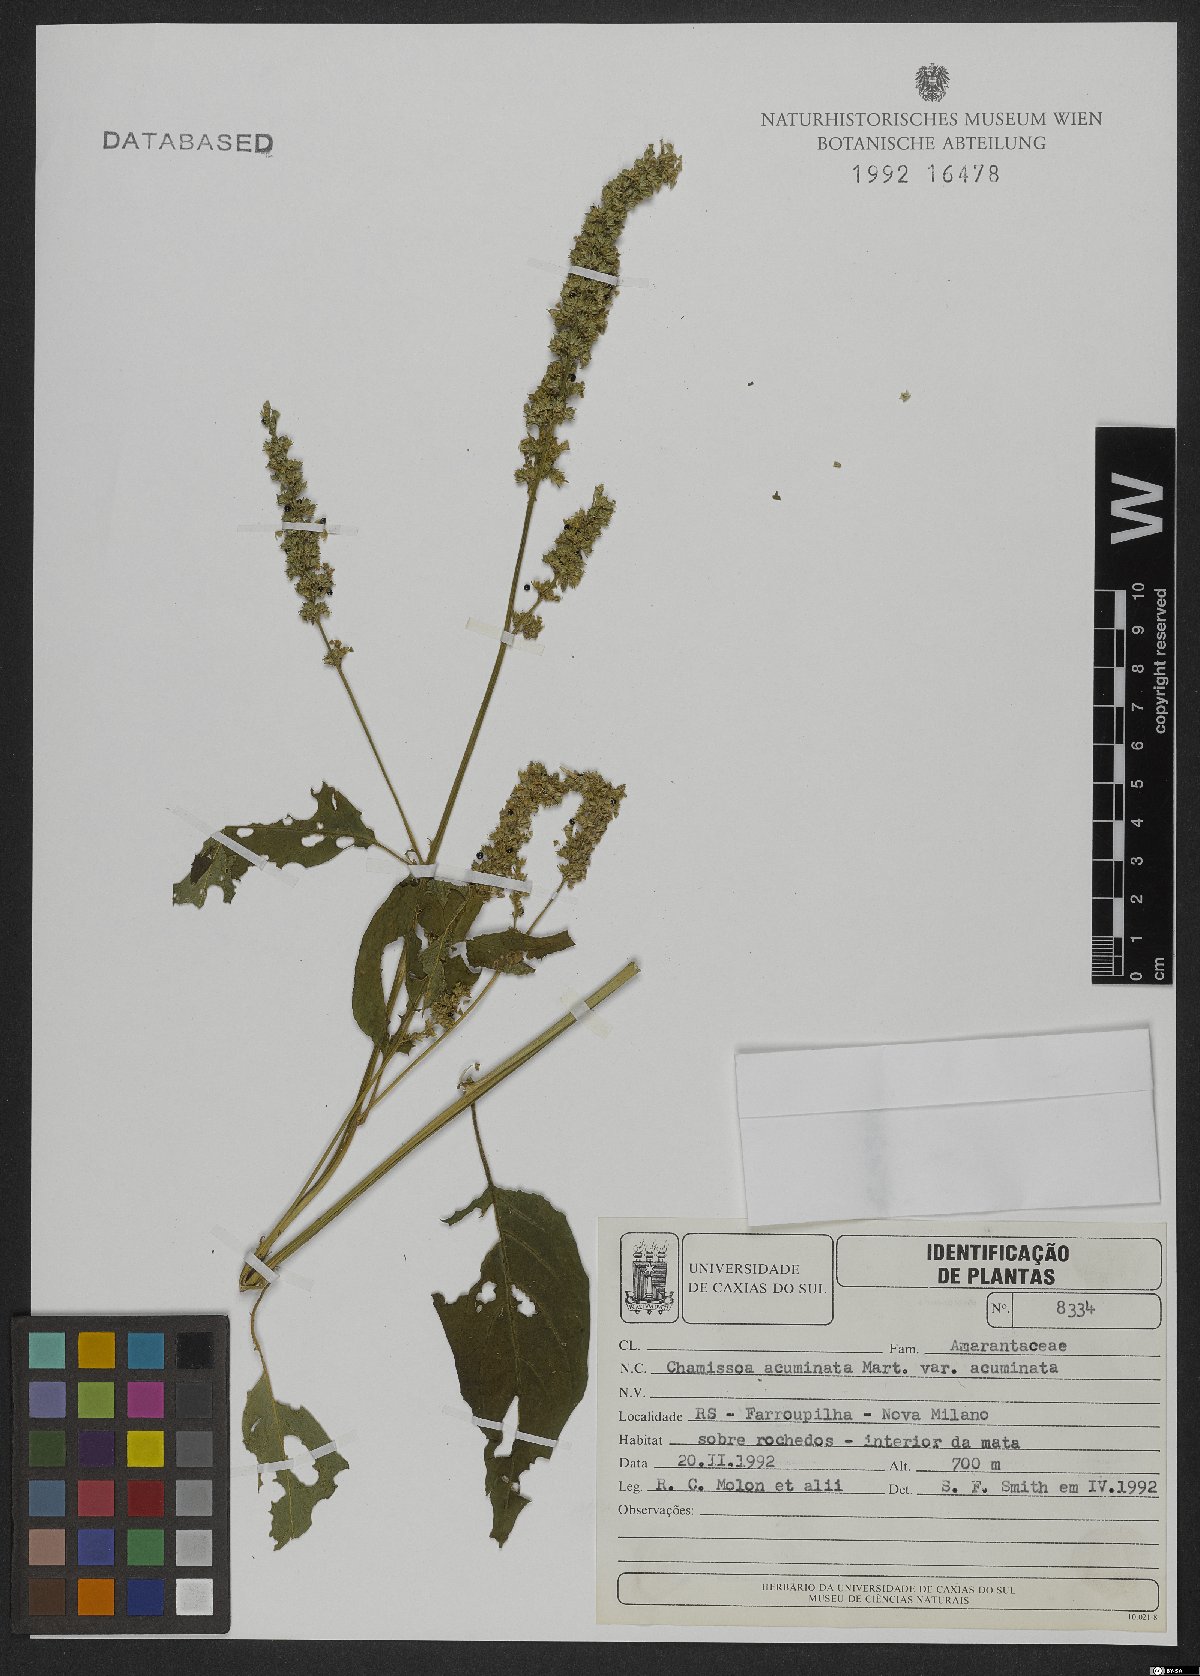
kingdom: Plantae
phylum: Tracheophyta
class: Magnoliopsida
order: Caryophyllales
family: Amaranthaceae
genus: Chamissoa
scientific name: Chamissoa acuminata
